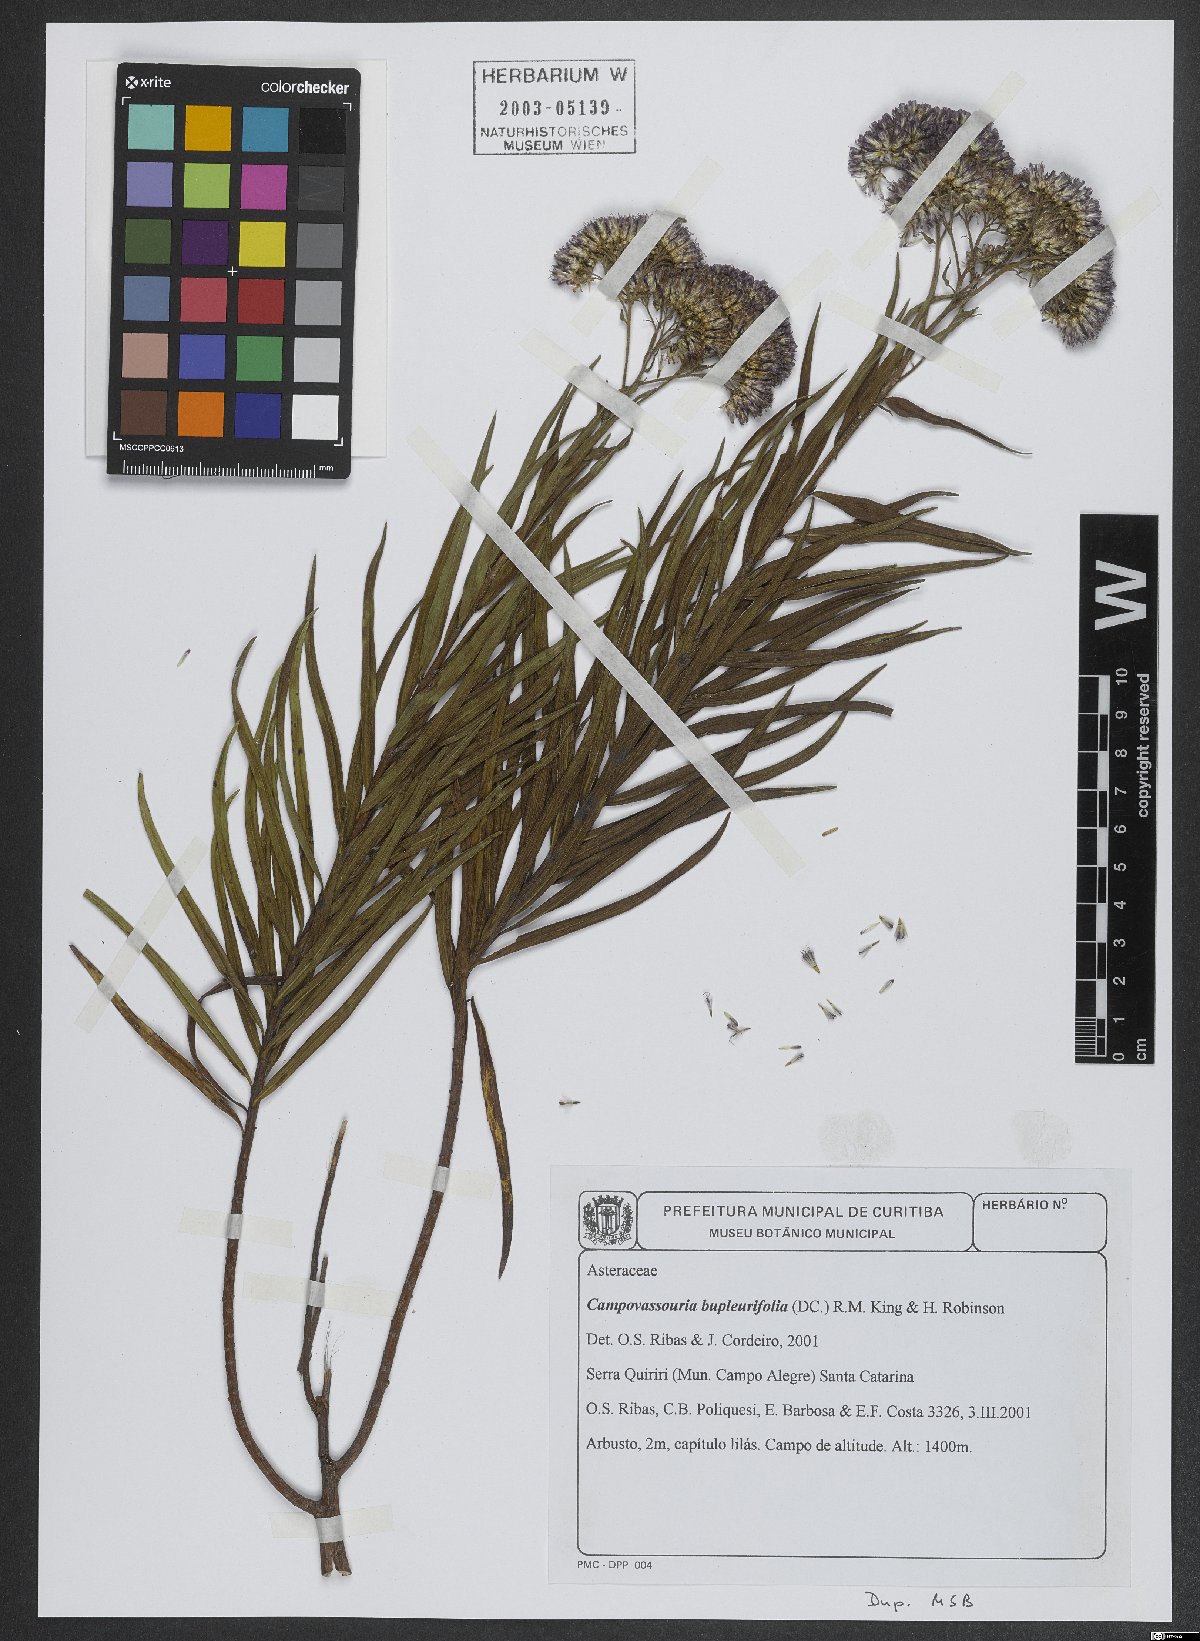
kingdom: Plantae
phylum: Tracheophyta
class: Magnoliopsida
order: Asterales
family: Asteraceae
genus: Campovassouria
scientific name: Campovassouria cruciata
